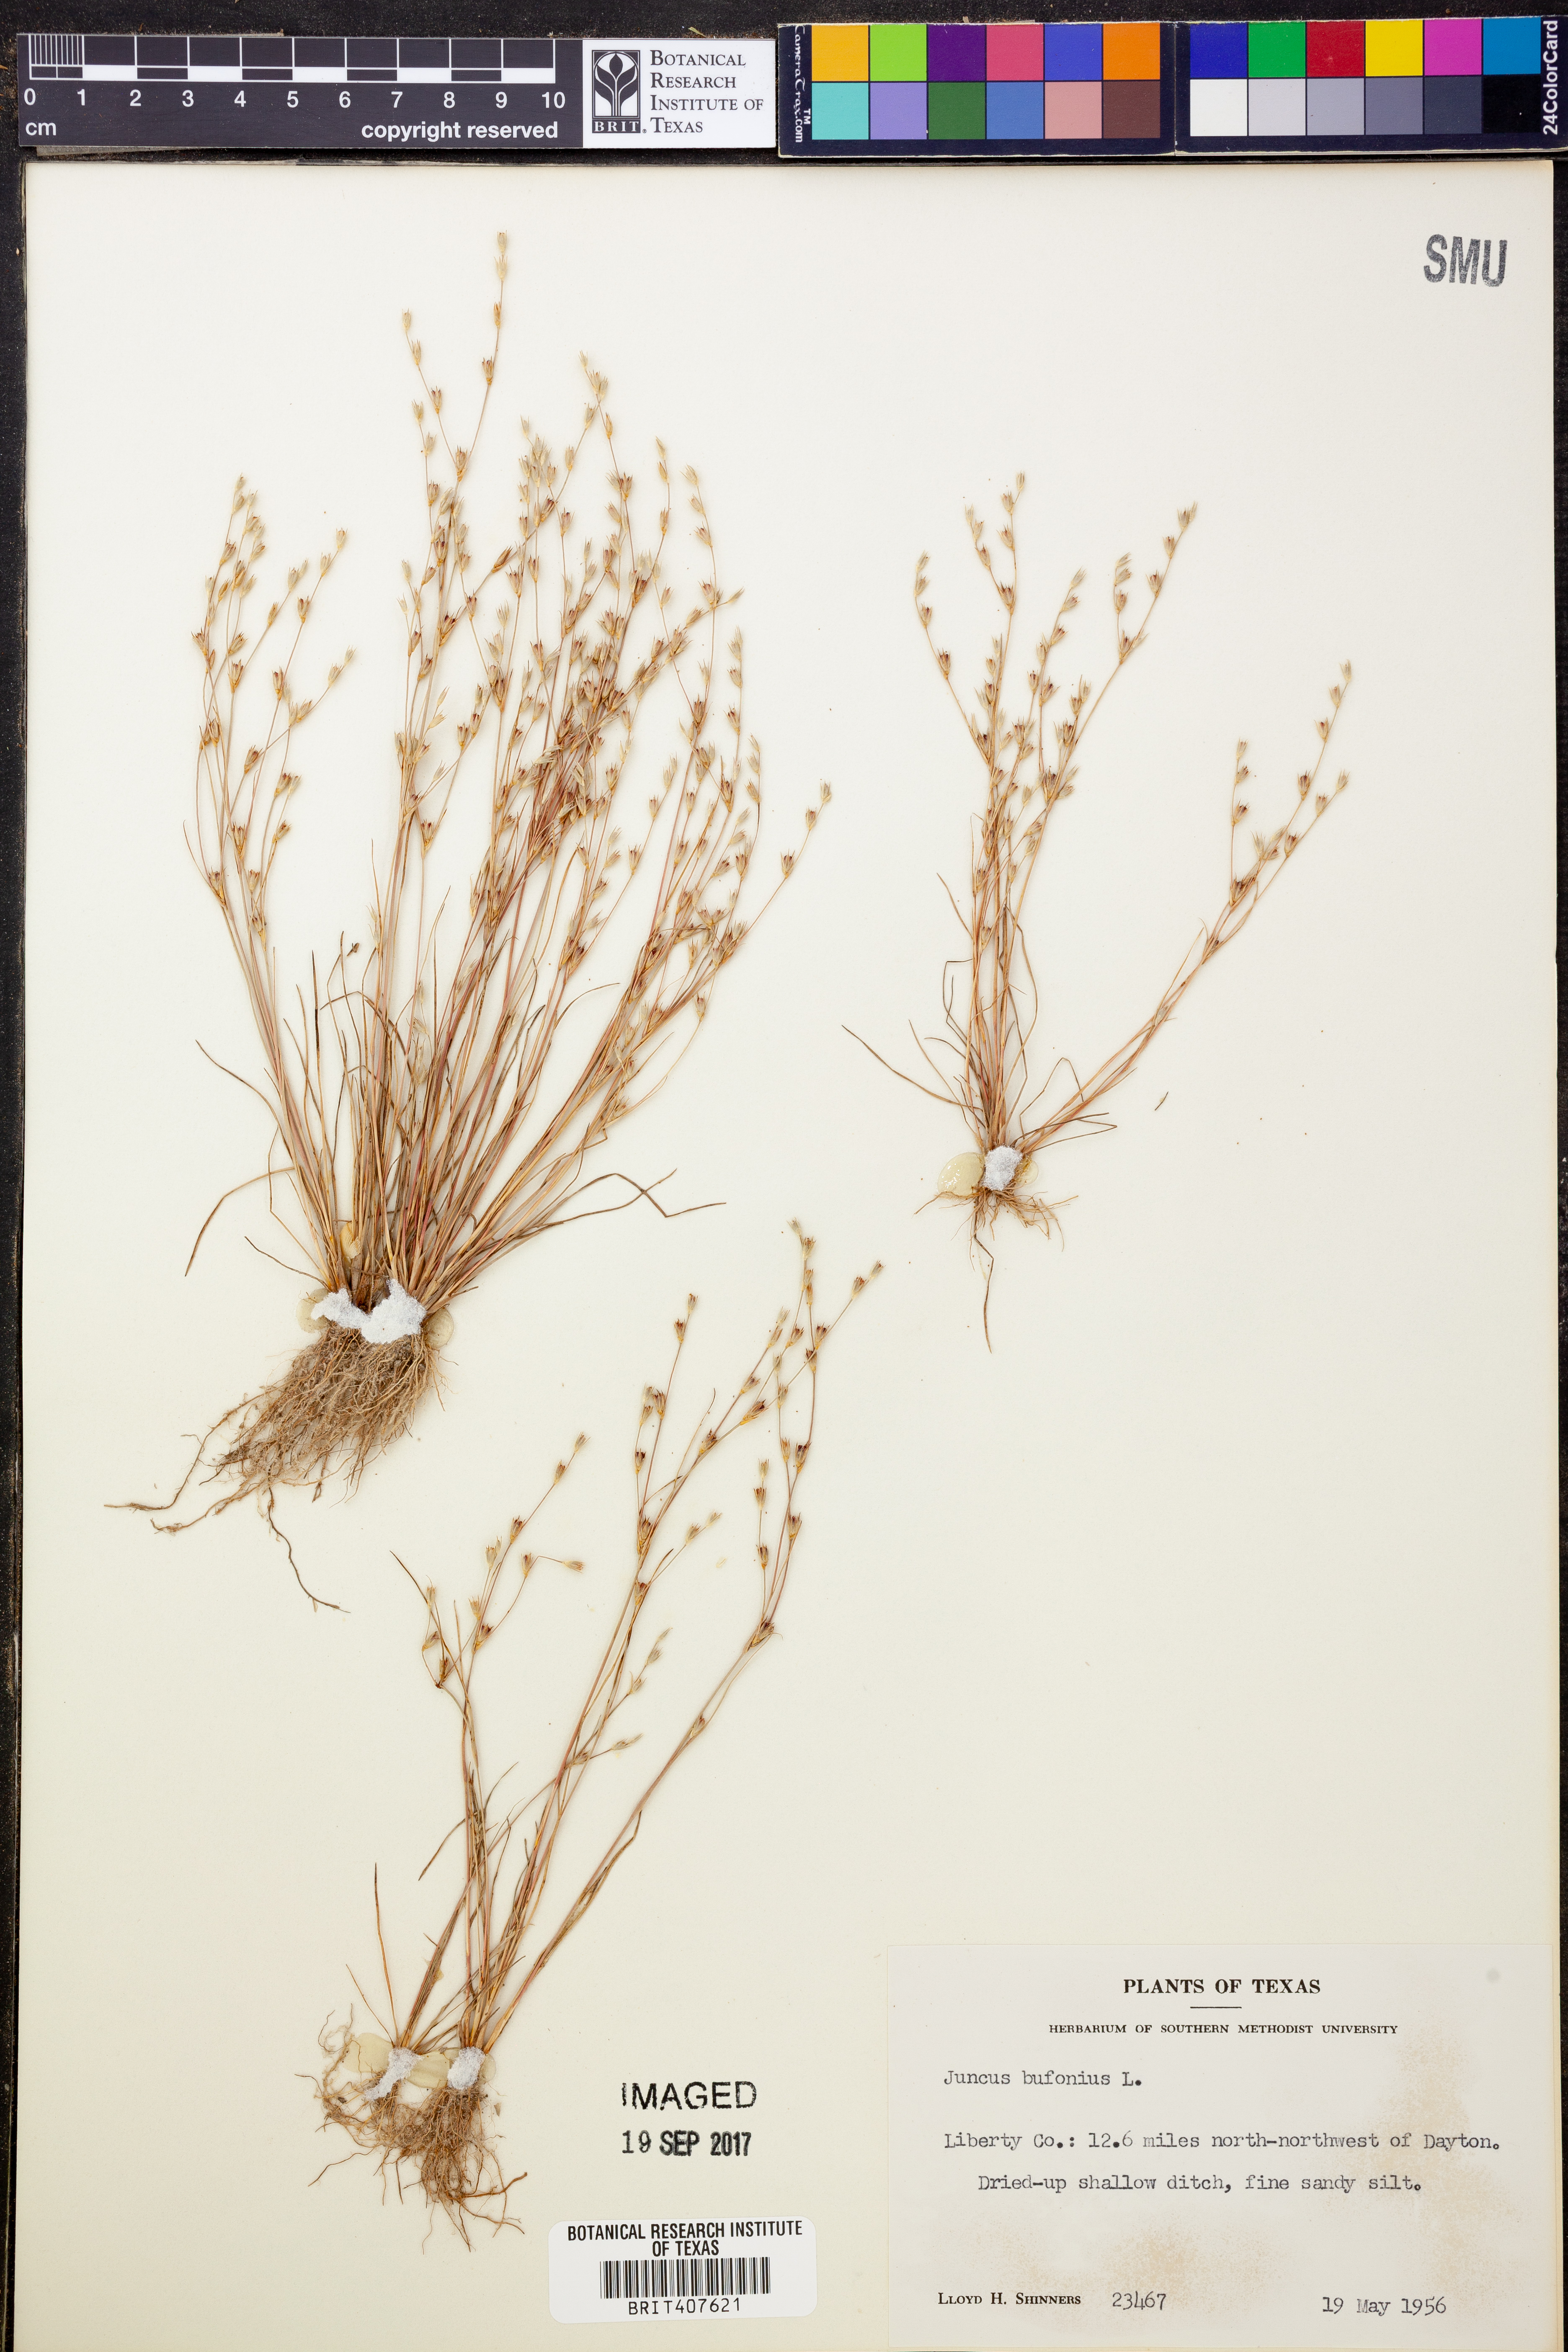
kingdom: Plantae
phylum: Tracheophyta
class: Liliopsida
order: Poales
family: Juncaceae
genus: Juncus
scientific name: Juncus bufonius
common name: Toad rush
